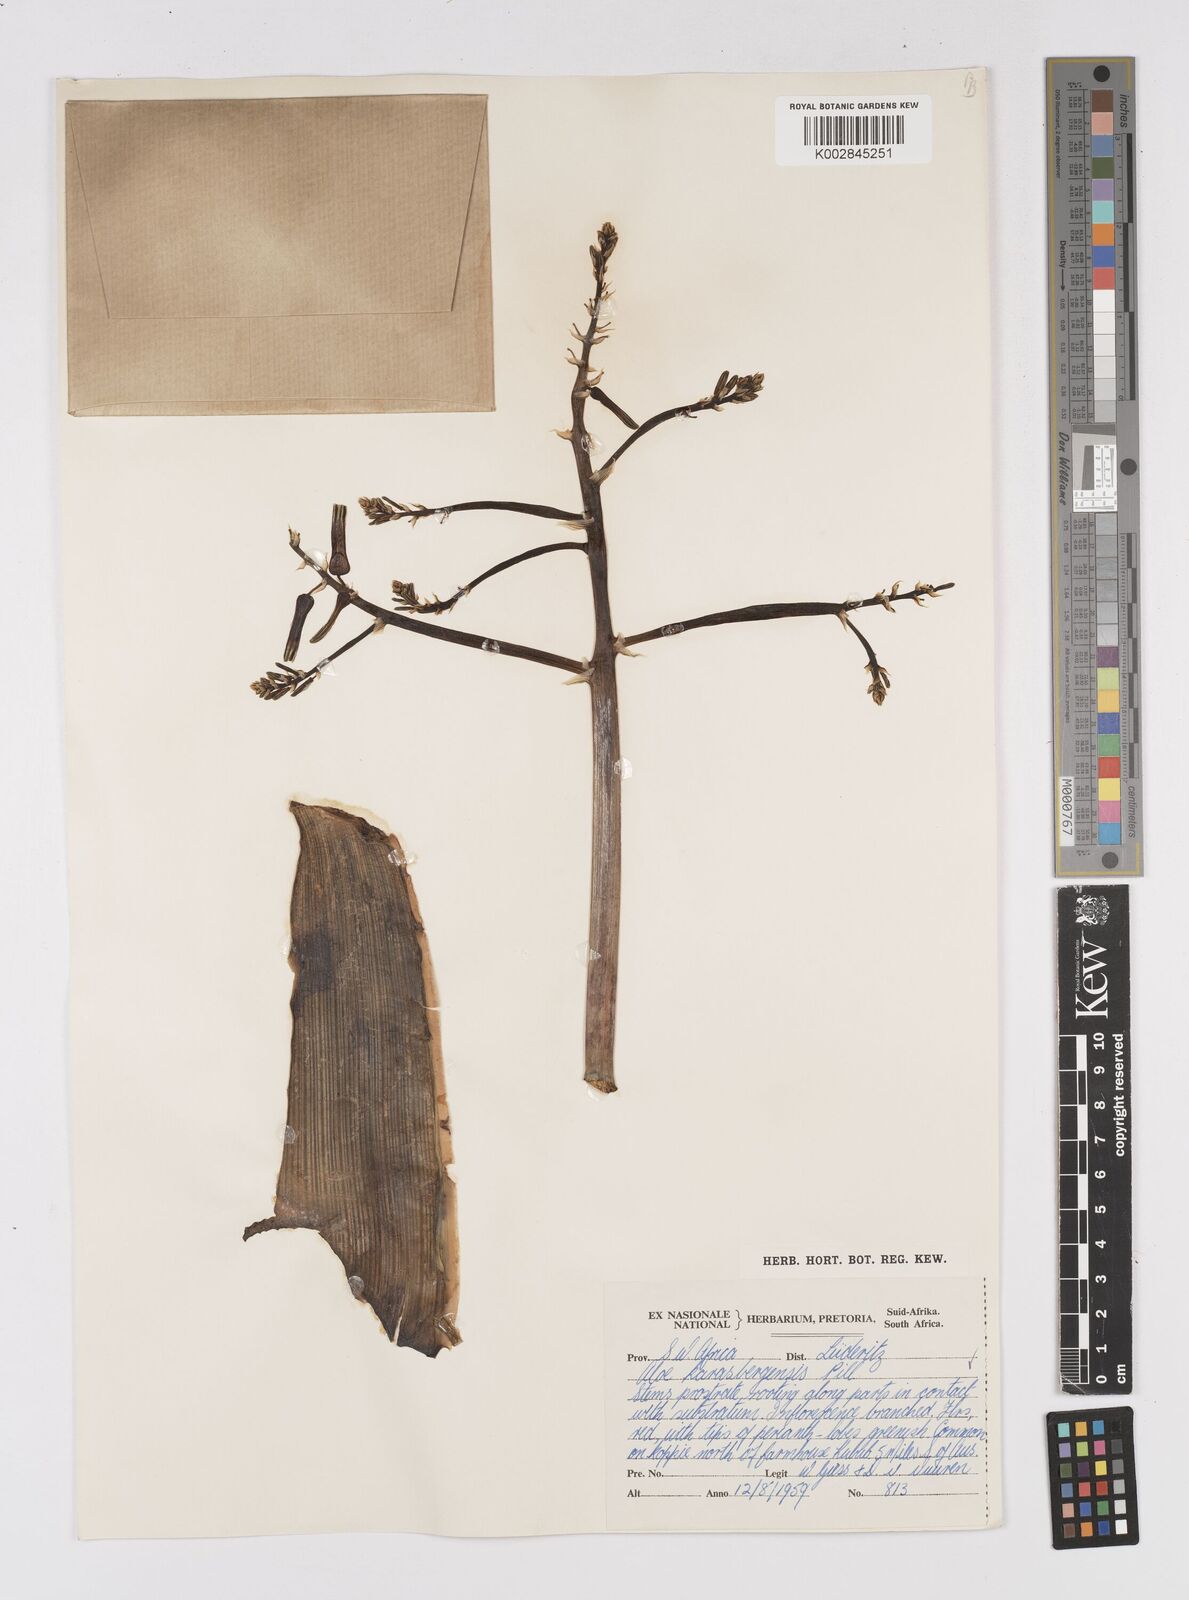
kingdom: Plantae
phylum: Tracheophyta
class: Liliopsida
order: Asparagales
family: Asphodelaceae
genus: Aloe
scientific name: Aloe karasbergensis
